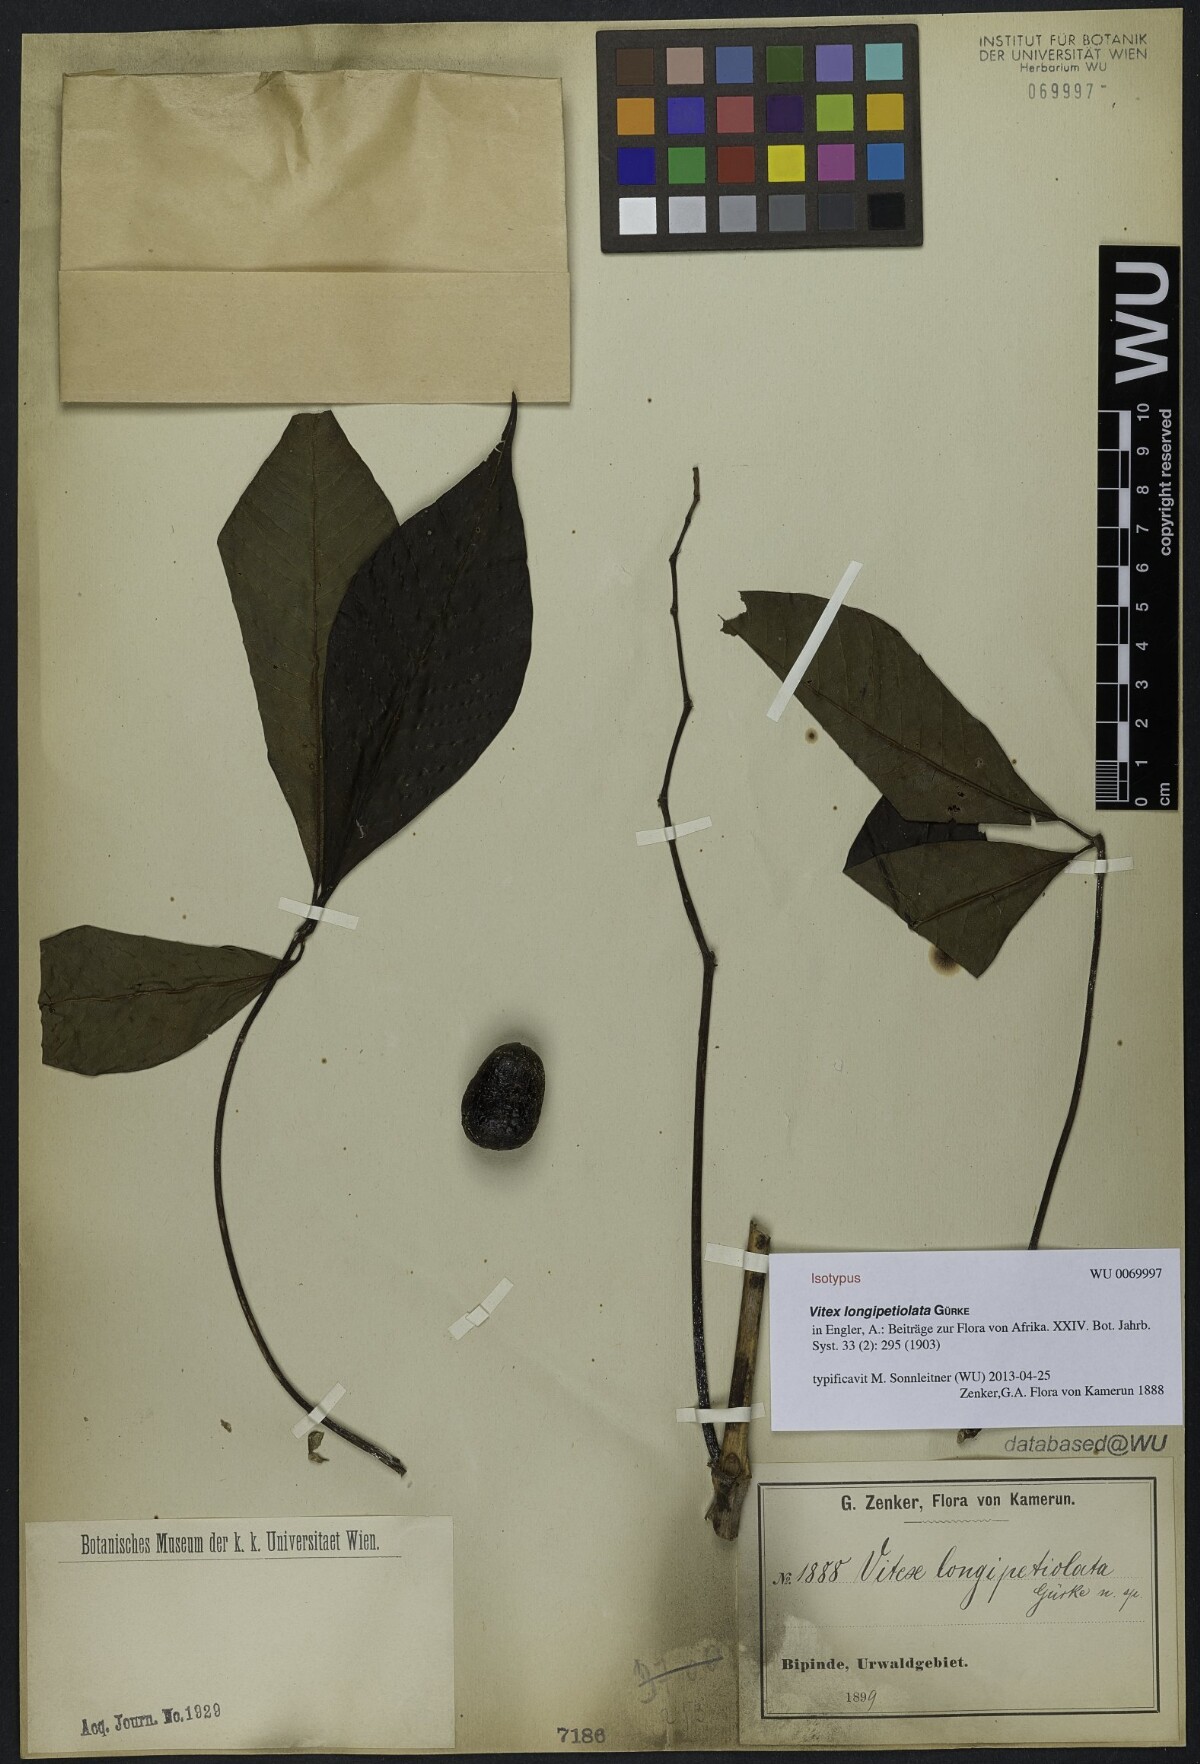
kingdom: Plantae
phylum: Tracheophyta
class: Magnoliopsida
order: Lamiales
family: Lamiaceae
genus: Vitex
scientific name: Vitex rivularis
